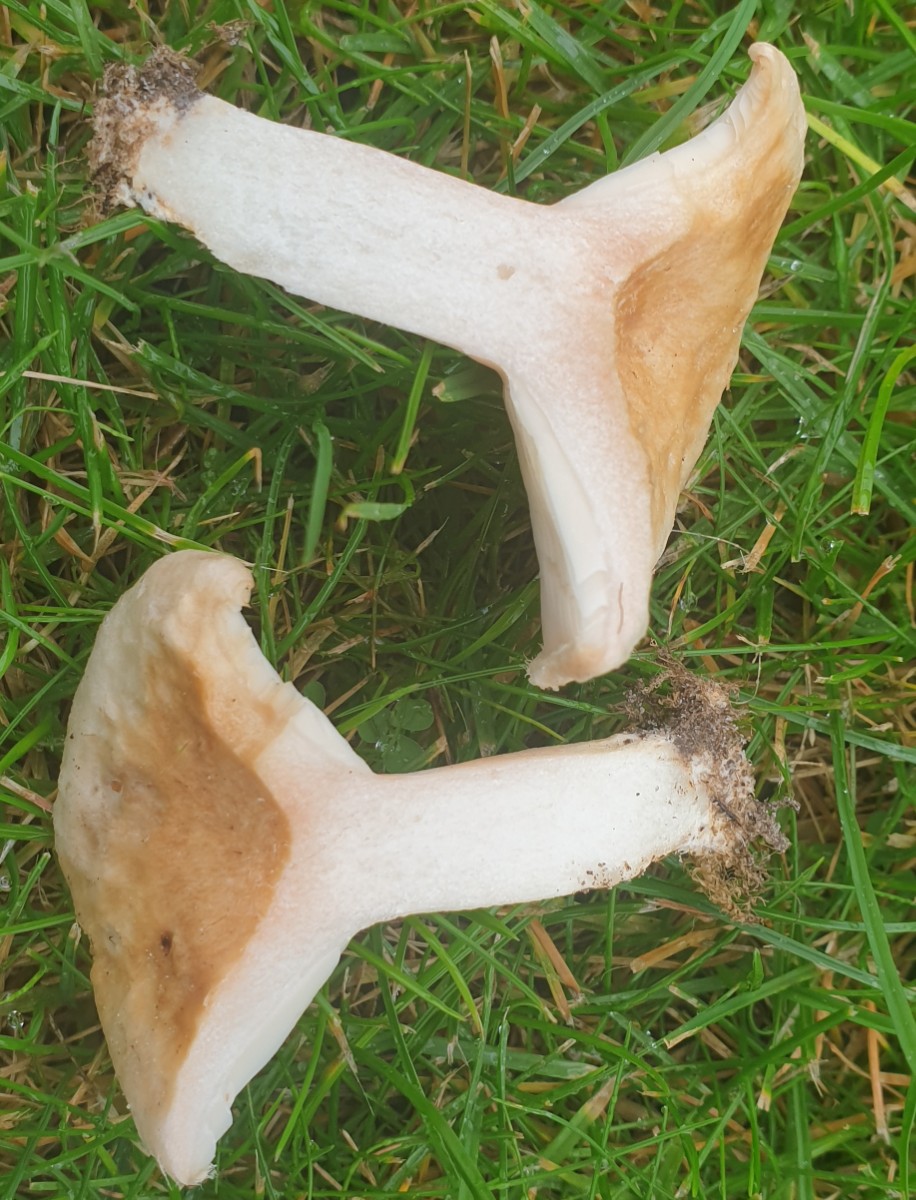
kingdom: Fungi
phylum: Basidiomycota
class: Agaricomycetes
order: Russulales
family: Russulaceae
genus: Lactarius
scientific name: Lactarius pubescens
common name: dunet mælkehat
